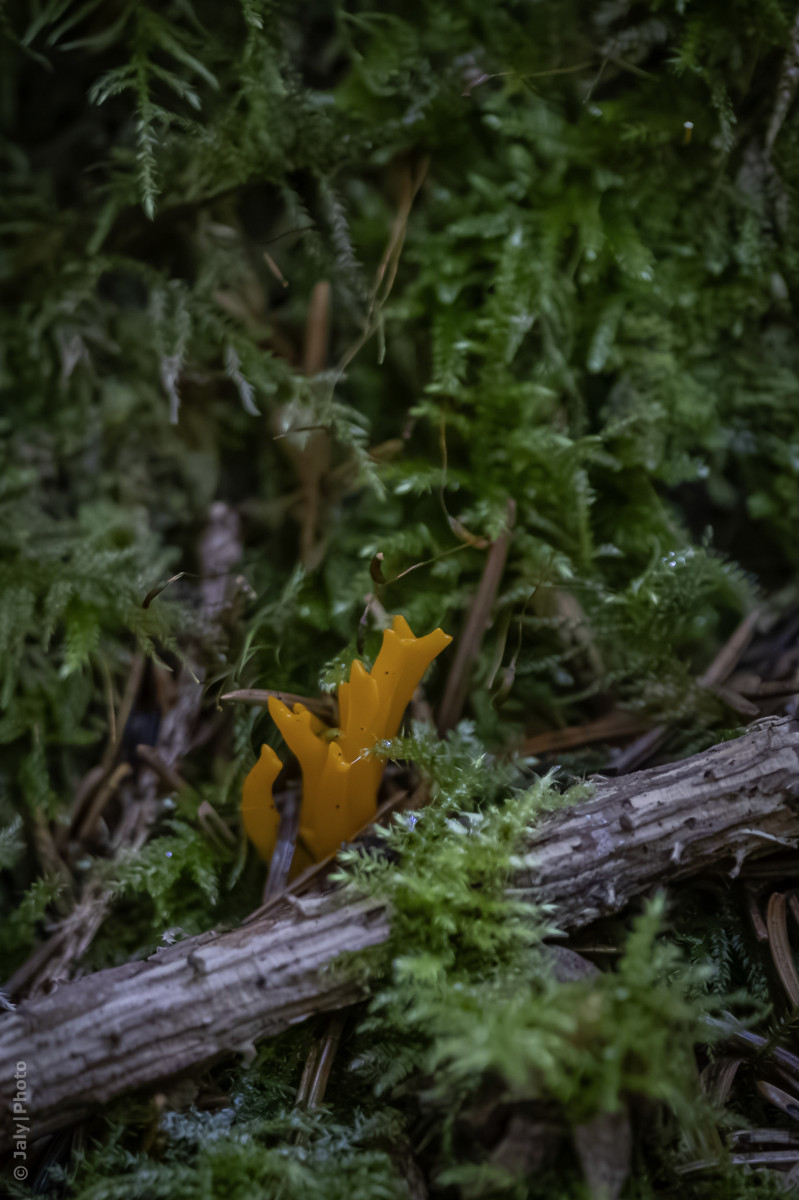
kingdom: Fungi
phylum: Basidiomycota
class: Dacrymycetes
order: Dacrymycetales
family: Dacrymycetaceae
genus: Calocera
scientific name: Calocera viscosa
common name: almindelig guldgaffel
